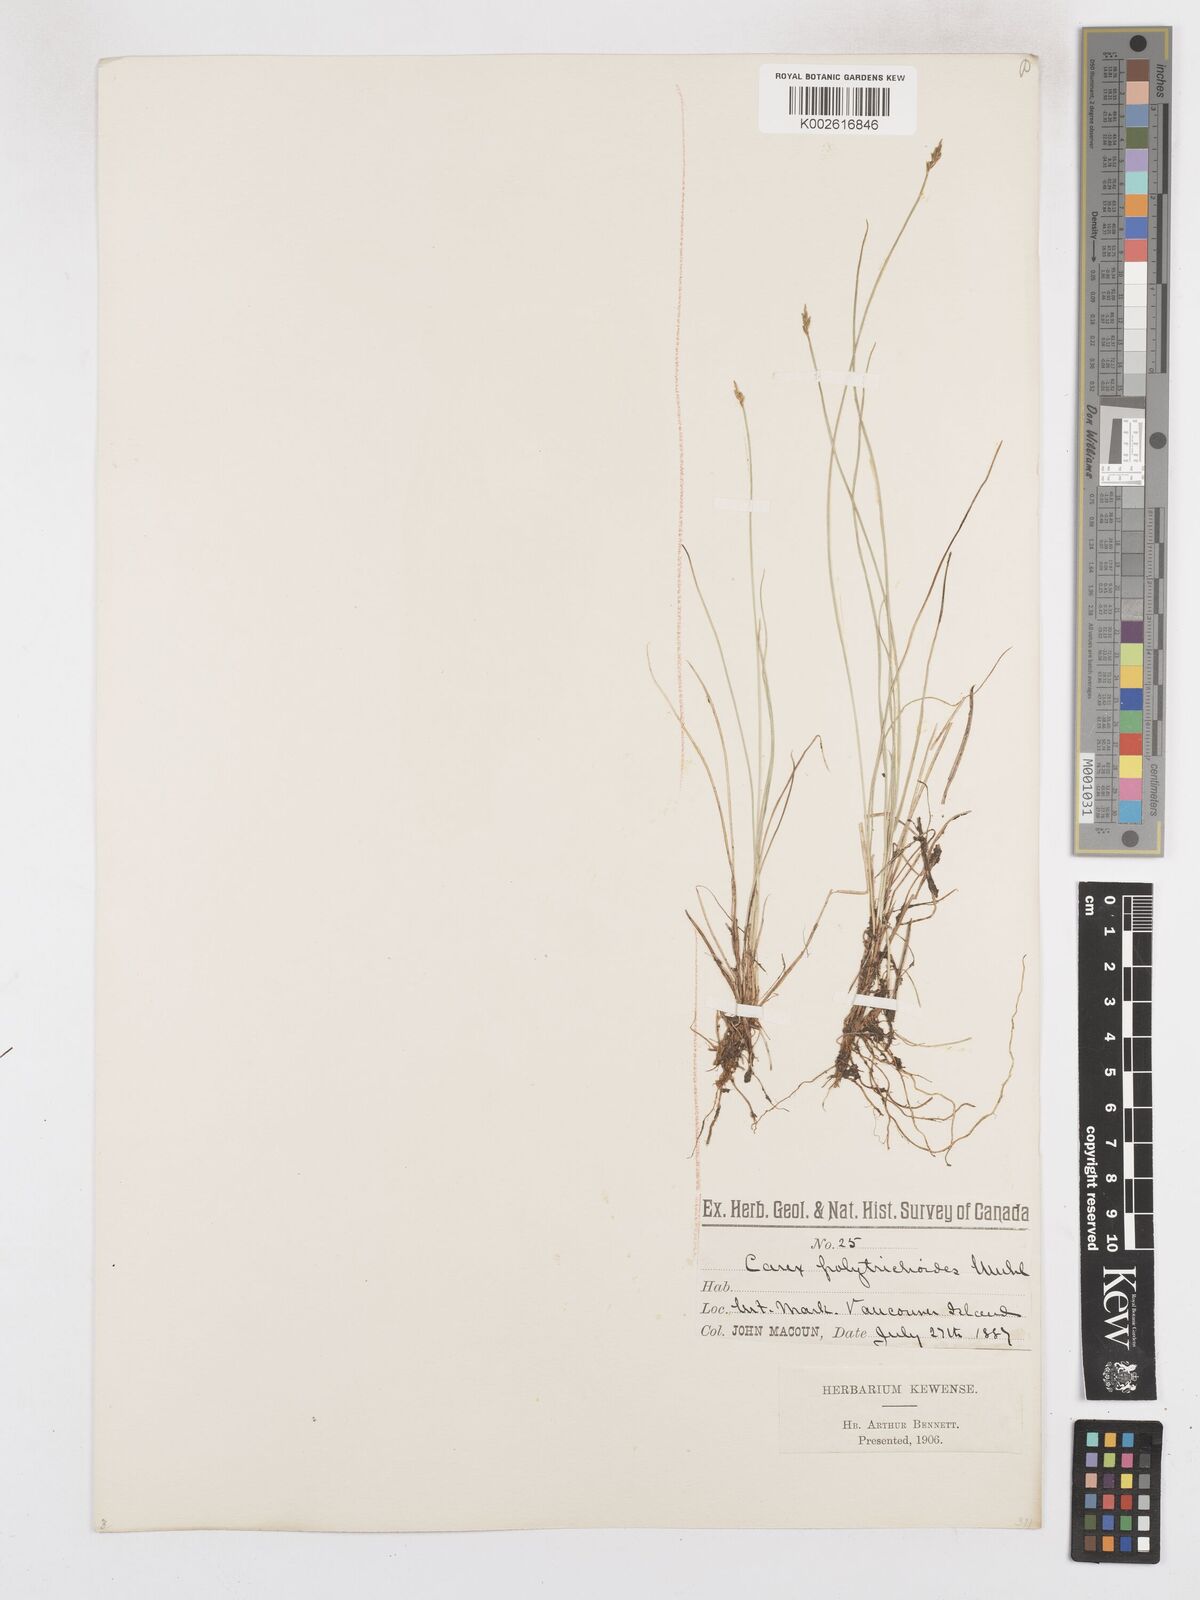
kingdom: Plantae
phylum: Tracheophyta
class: Liliopsida
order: Poales
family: Cyperaceae
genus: Carex
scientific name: Carex leptalea
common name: Bristly-stalked sedge
